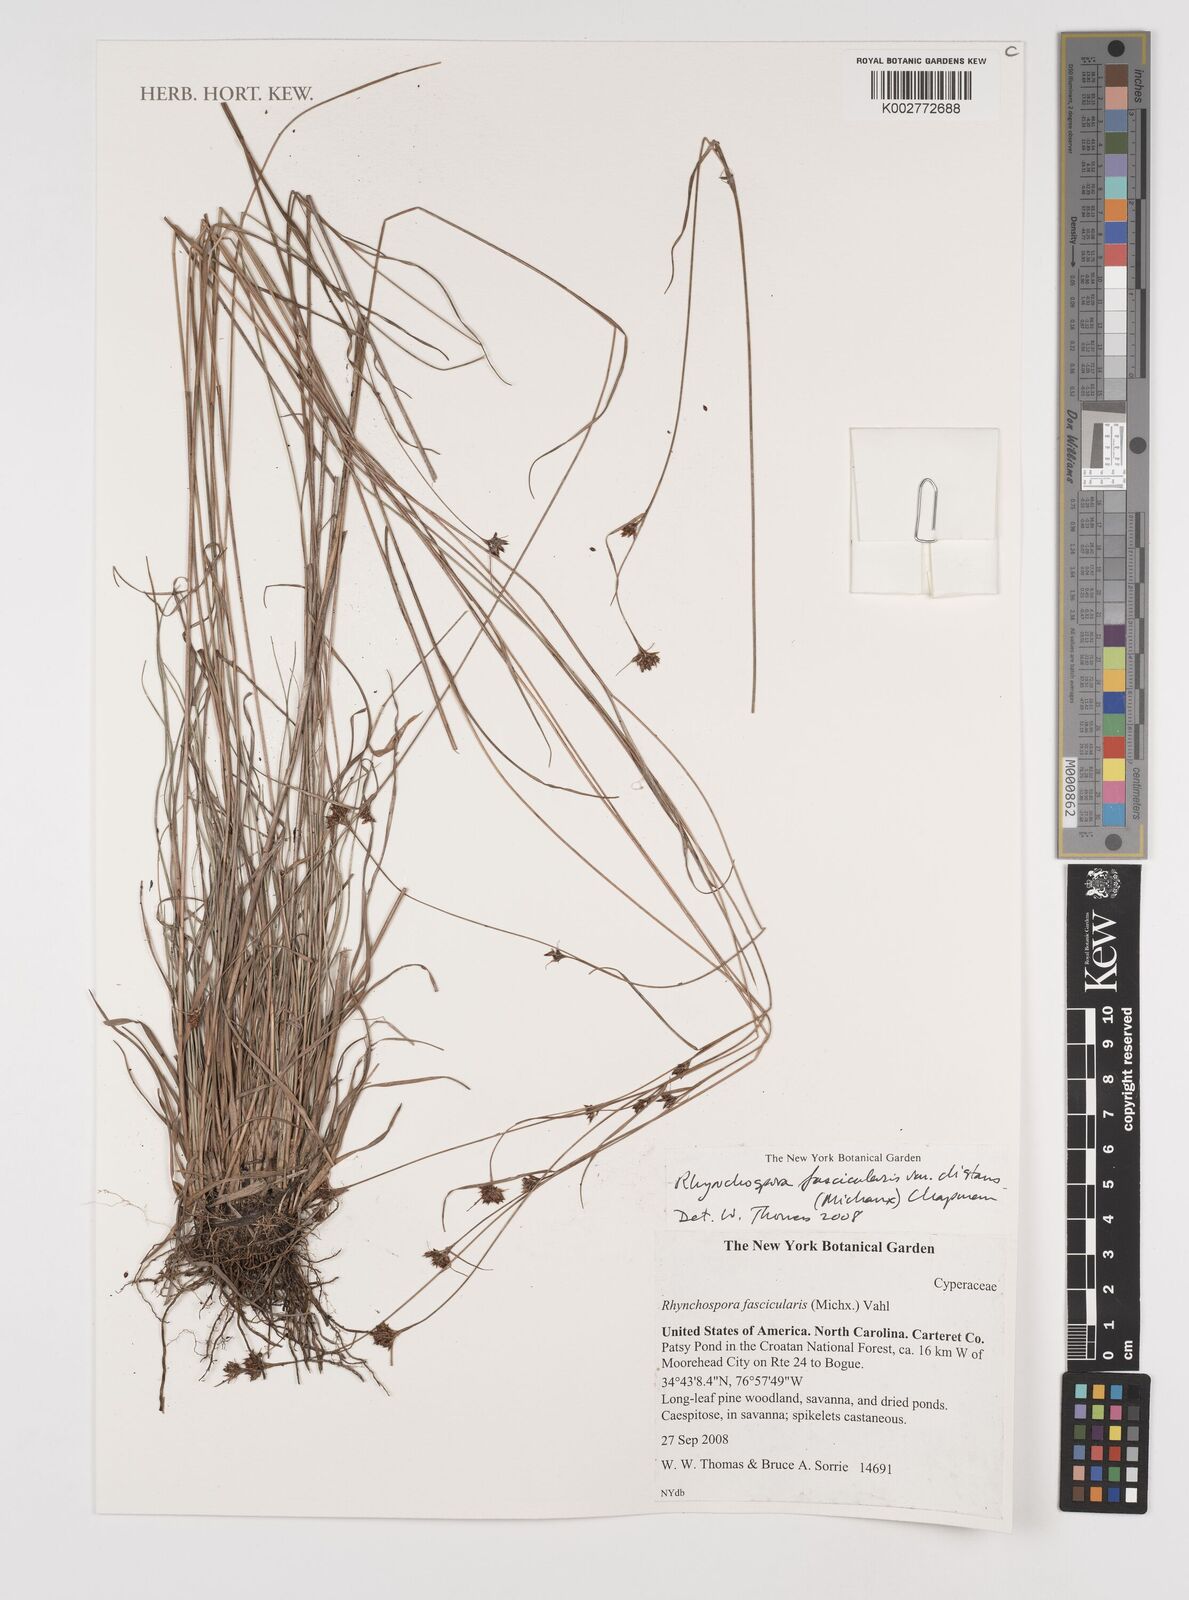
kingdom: Plantae
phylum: Tracheophyta
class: Liliopsida
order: Poales
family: Cyperaceae
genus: Rhynchospora
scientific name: Rhynchospora fascicularis
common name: Fascicled beak sedge
